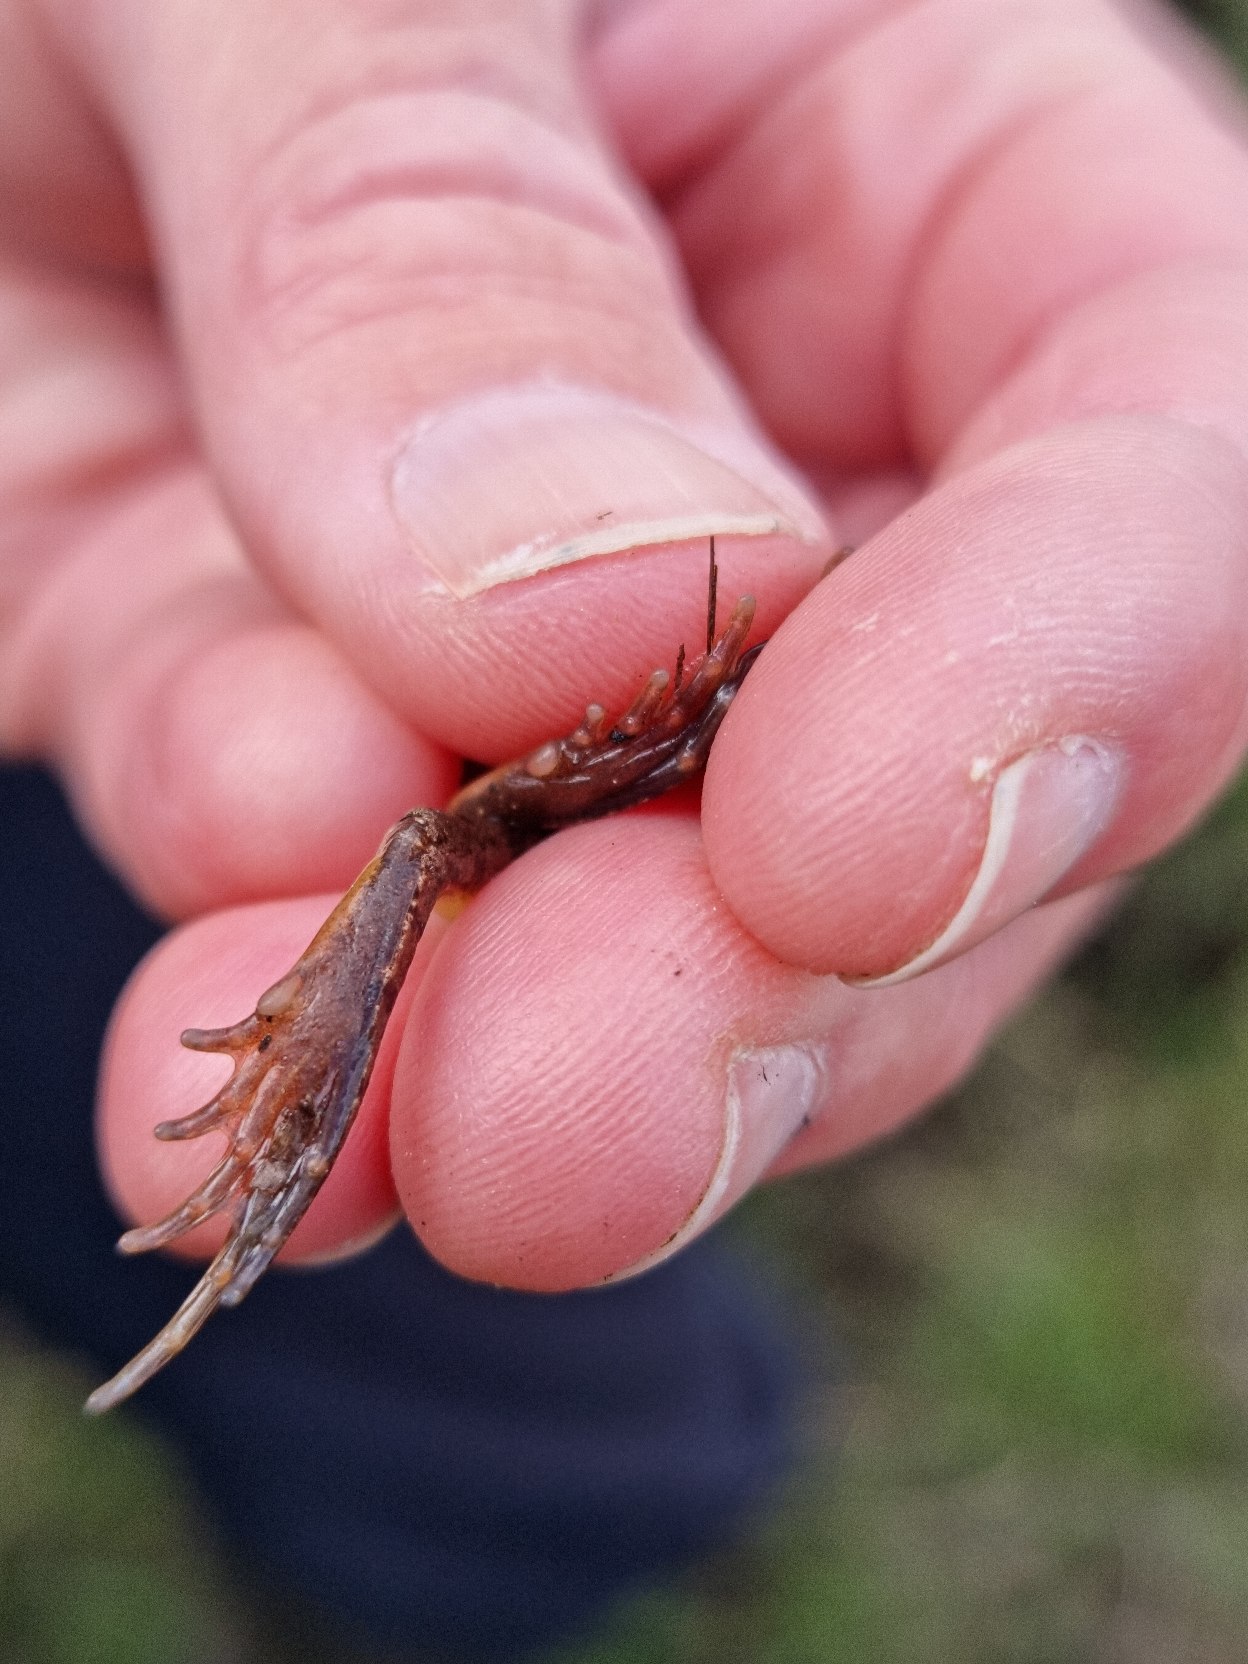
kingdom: Animalia
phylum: Chordata
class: Amphibia
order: Anura
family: Ranidae
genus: Rana
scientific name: Rana arvalis
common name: Spidssnudet frø
